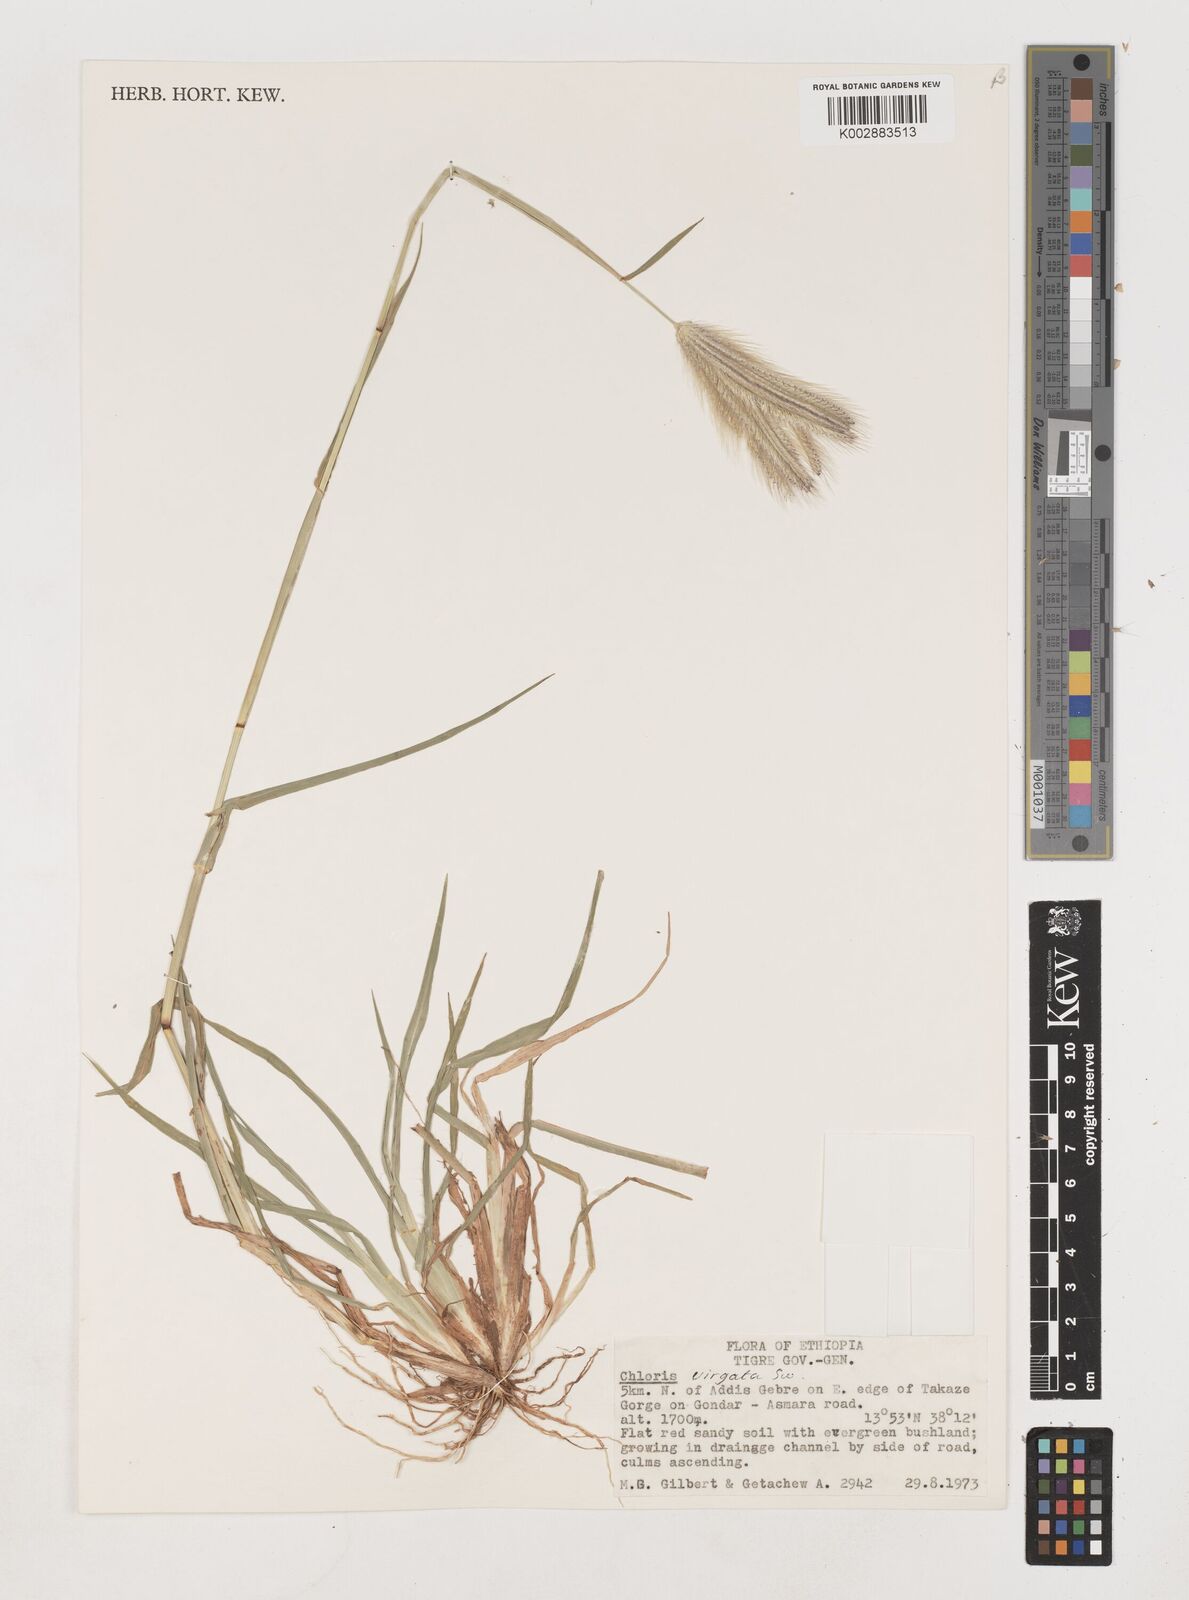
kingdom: Plantae
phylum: Tracheophyta
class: Liliopsida
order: Poales
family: Poaceae
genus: Chloris
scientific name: Chloris virgata
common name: Feathery rhodes-grass
